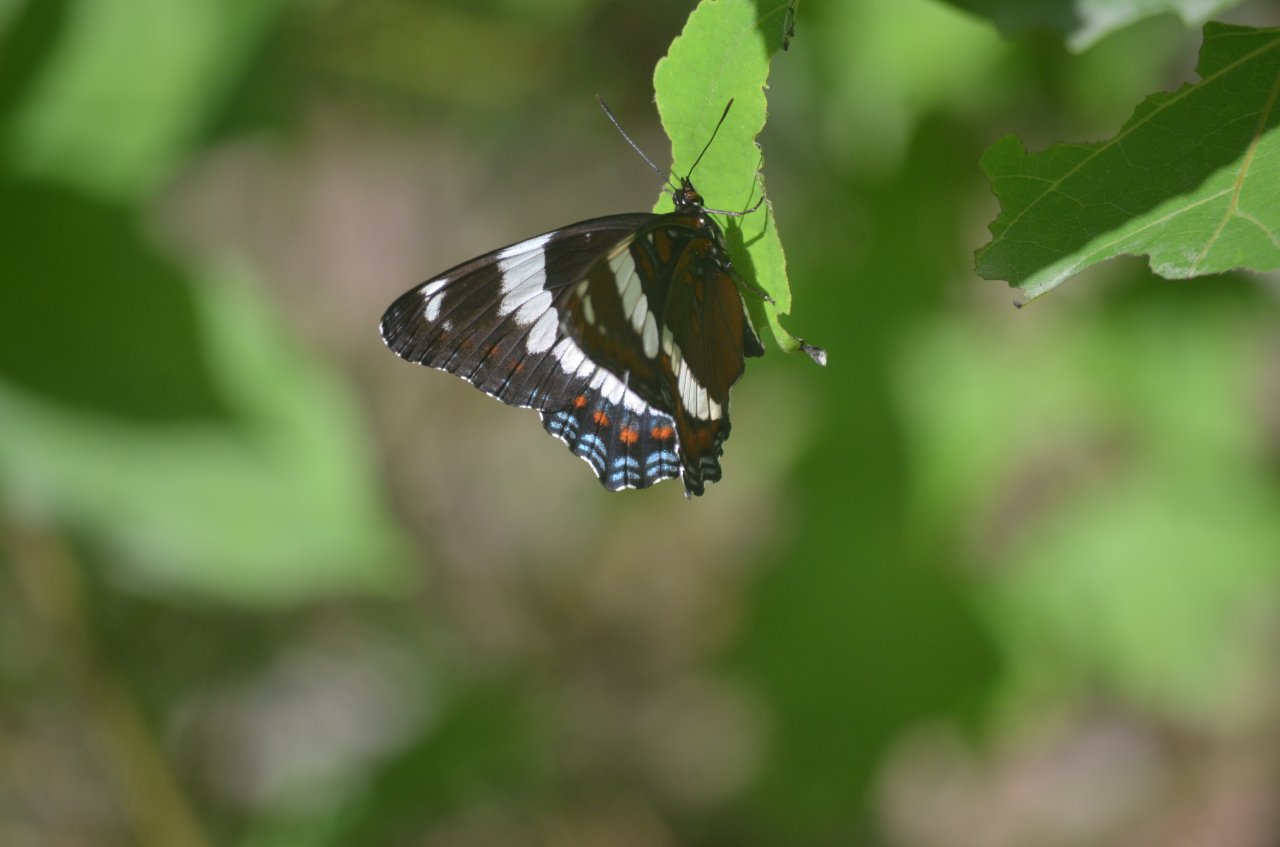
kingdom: Animalia
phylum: Arthropoda
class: Insecta
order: Lepidoptera
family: Nymphalidae
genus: Limenitis
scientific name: Limenitis arthemis
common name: Red-spotted Admiral
